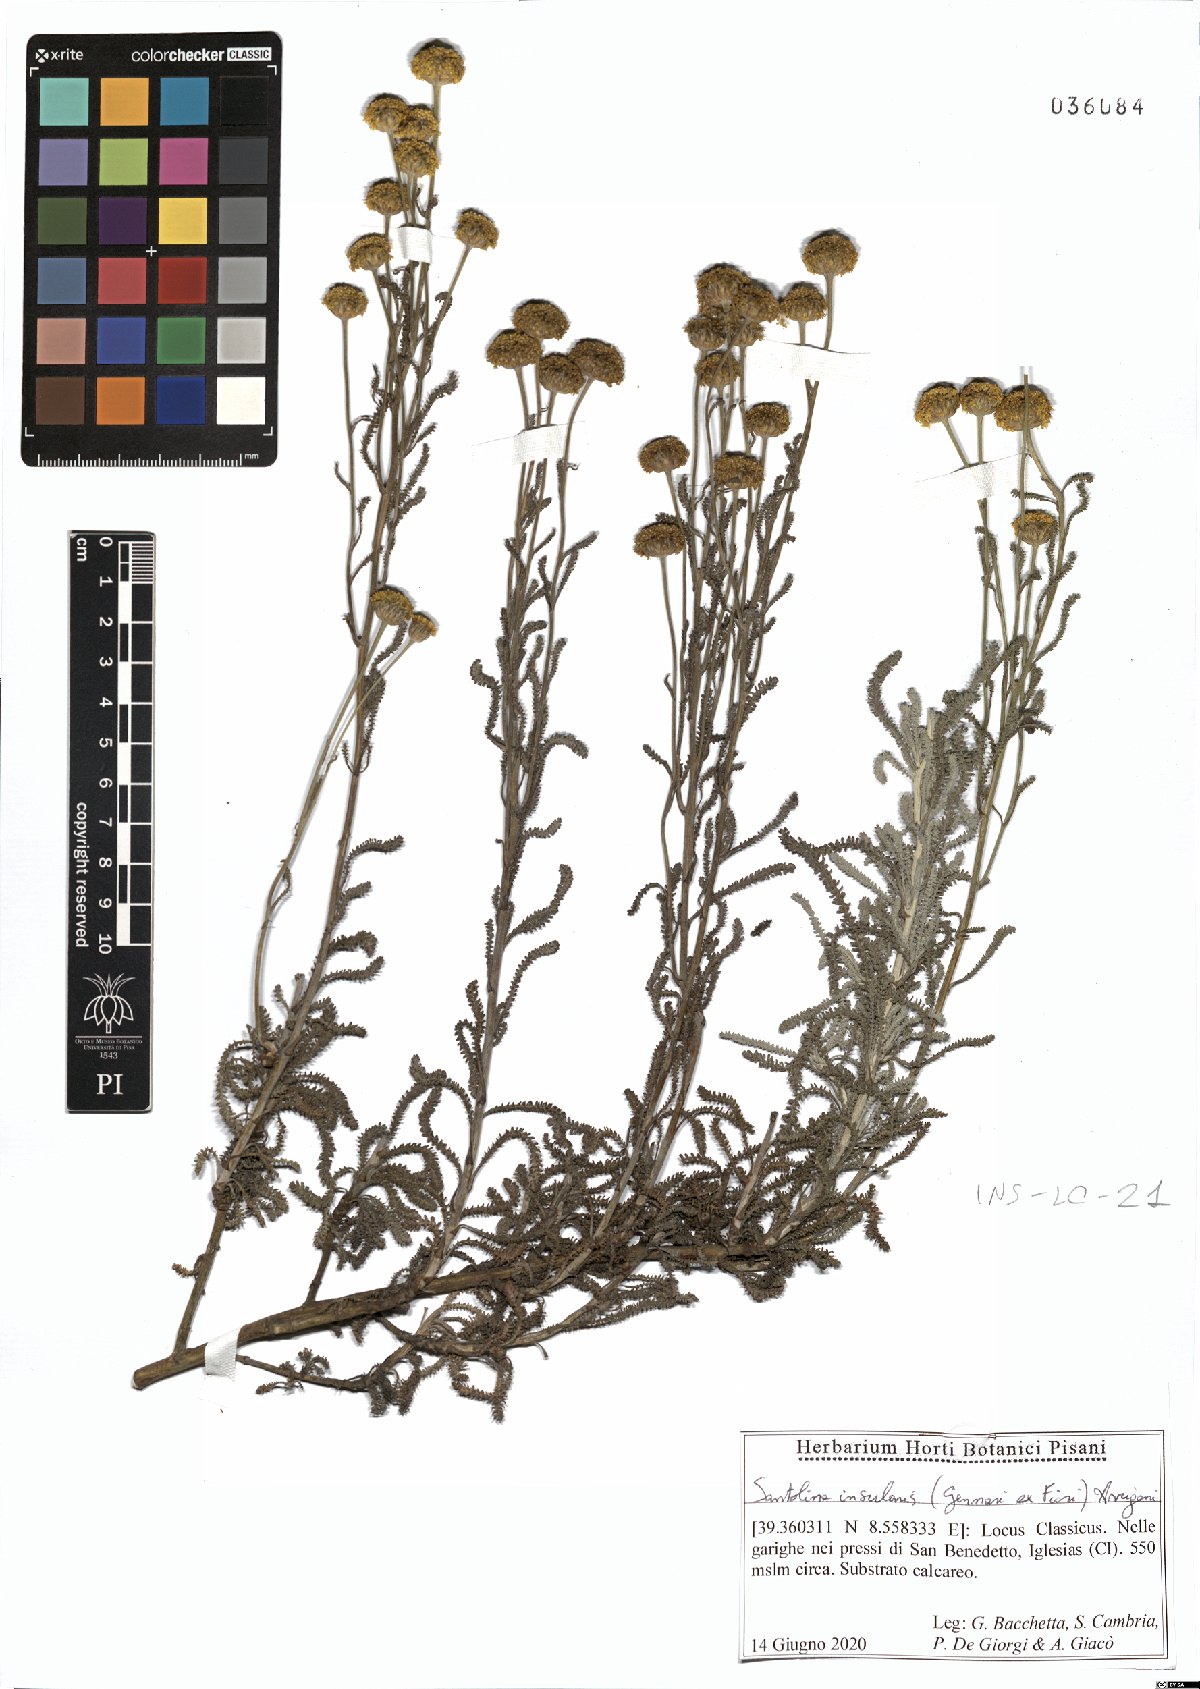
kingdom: Plantae
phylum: Tracheophyta
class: Magnoliopsida
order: Asterales
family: Asteraceae
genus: Santolina
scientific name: Santolina insularis
